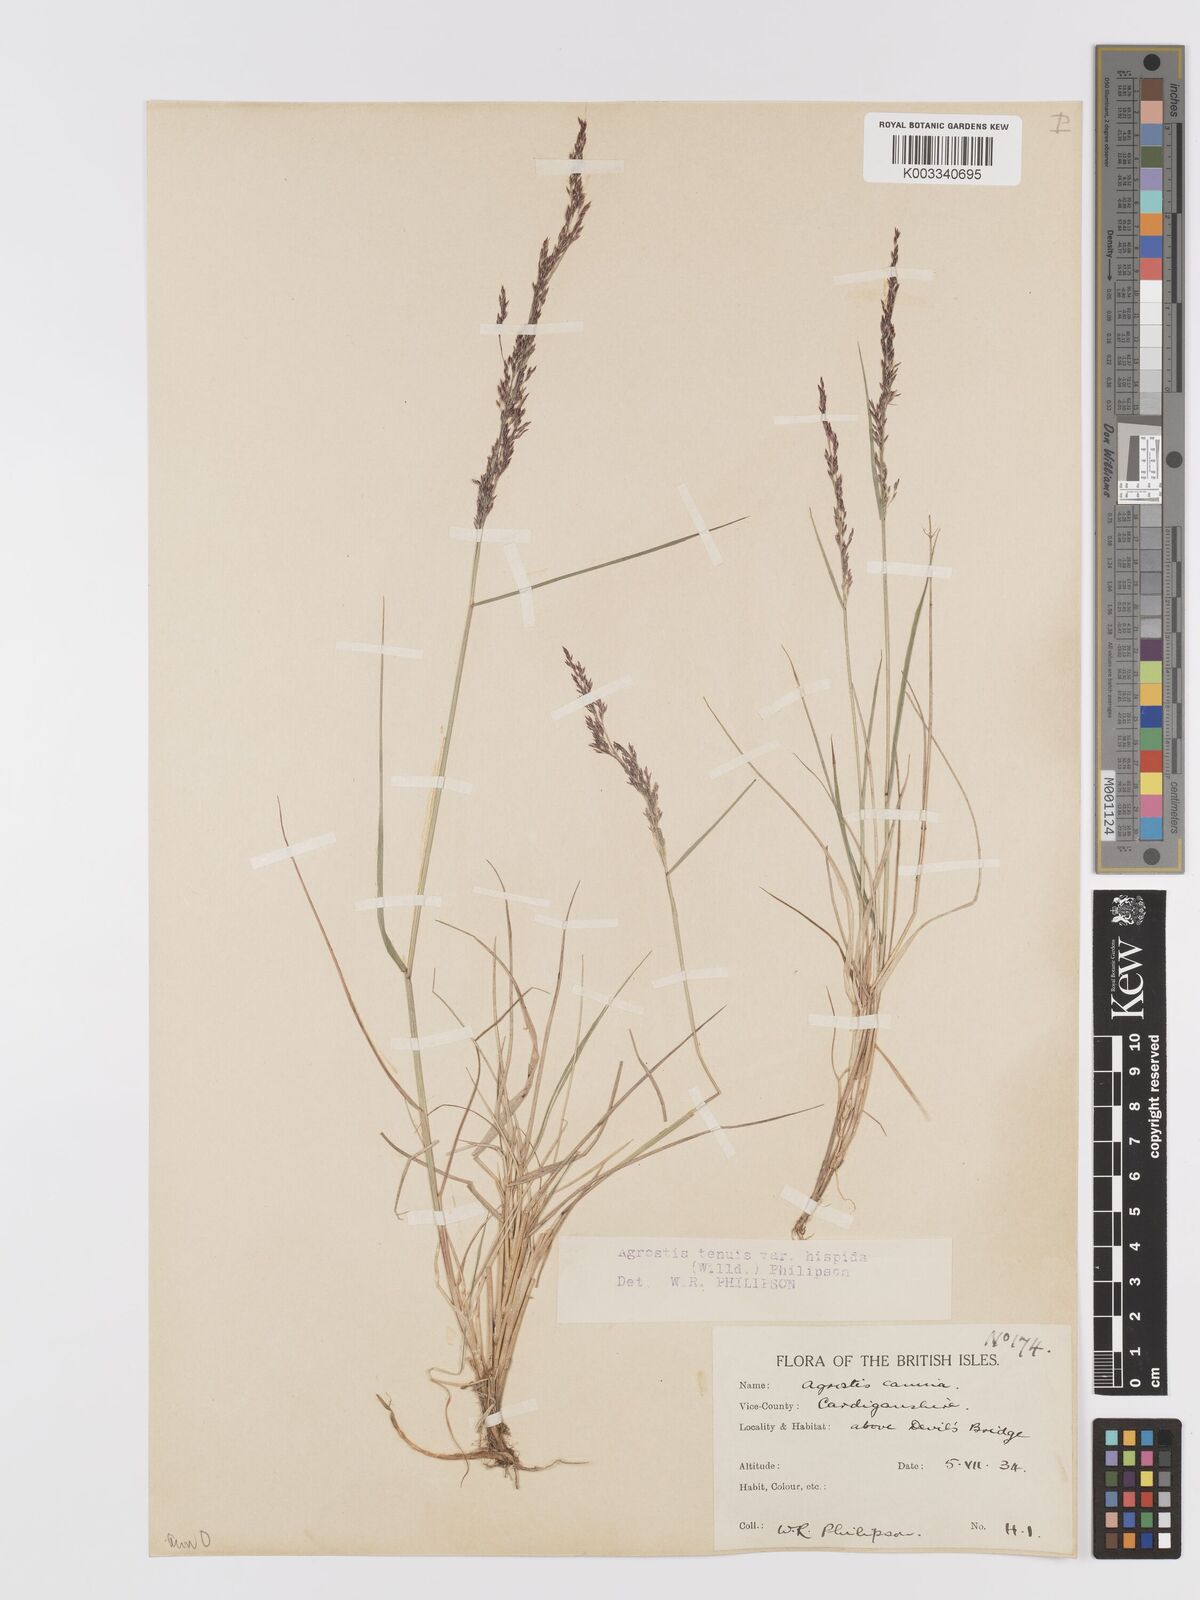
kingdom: Plantae
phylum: Tracheophyta
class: Liliopsida
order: Poales
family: Poaceae
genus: Agrostis
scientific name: Agrostis capillaris
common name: Colonial bentgrass
